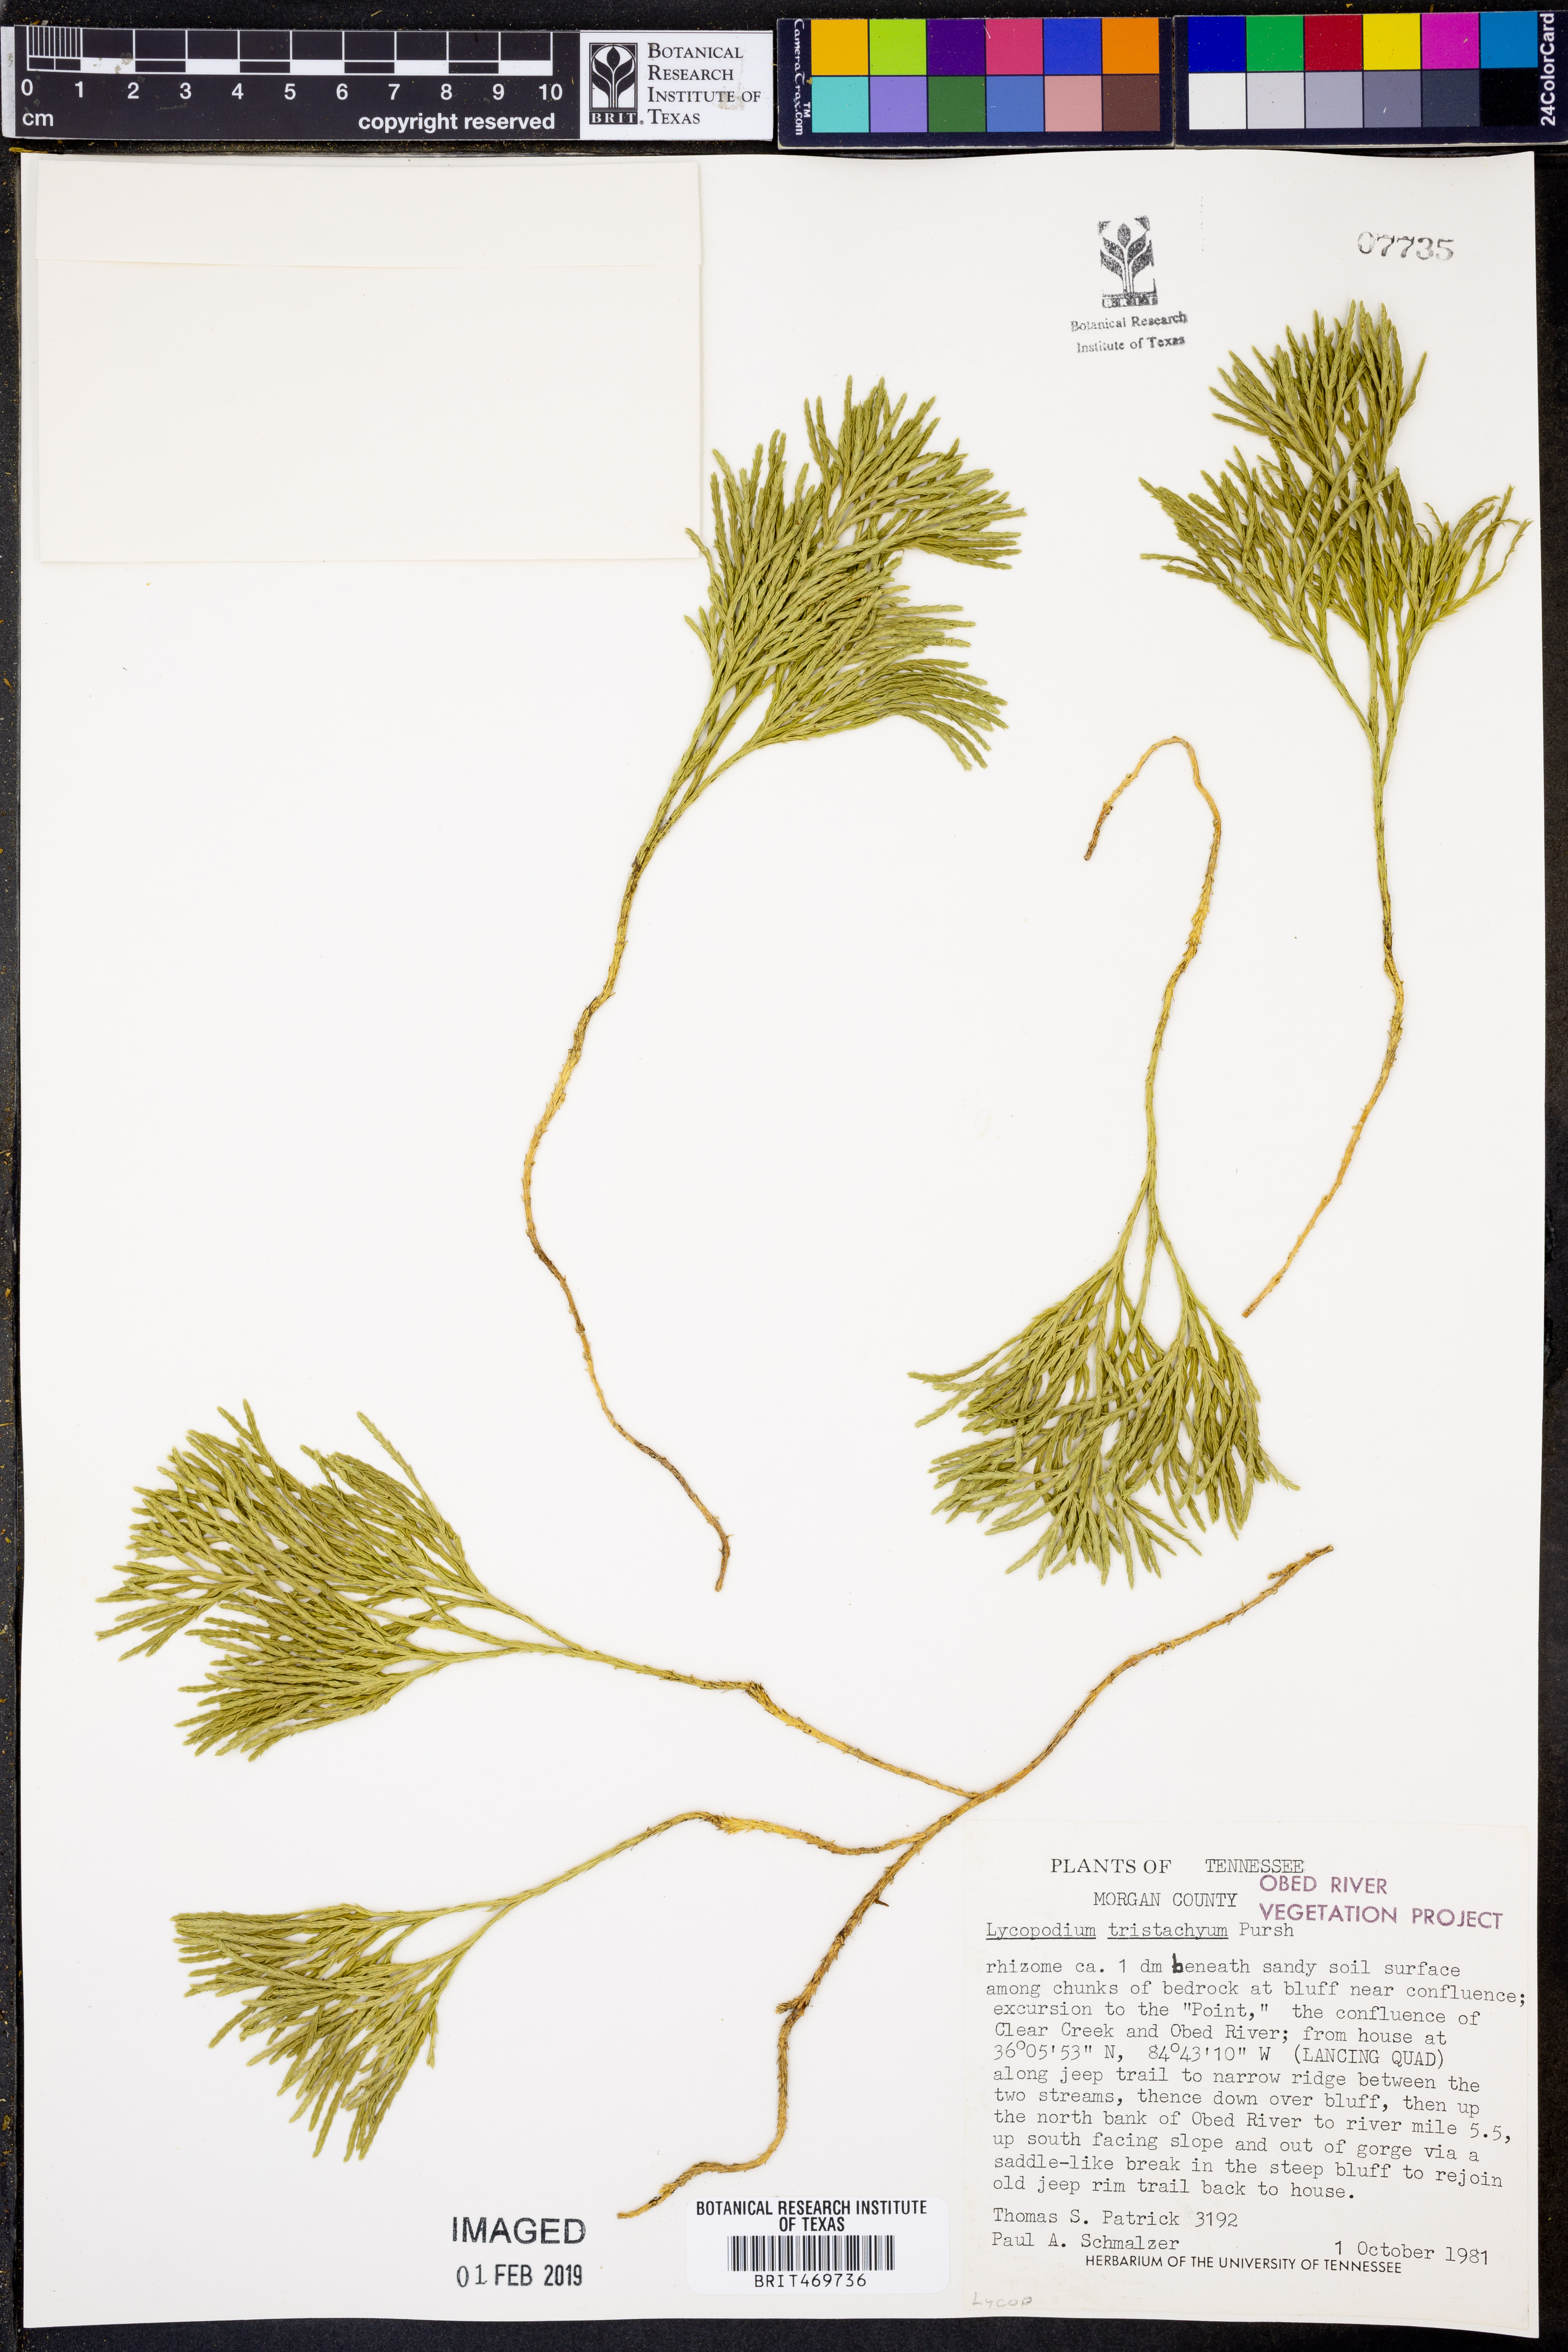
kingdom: Plantae
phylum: Tracheophyta
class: Lycopodiopsida
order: Lycopodiales
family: Lycopodiaceae
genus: Diphasiastrum
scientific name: Diphasiastrum tristachyum
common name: Blue ground-cedar
